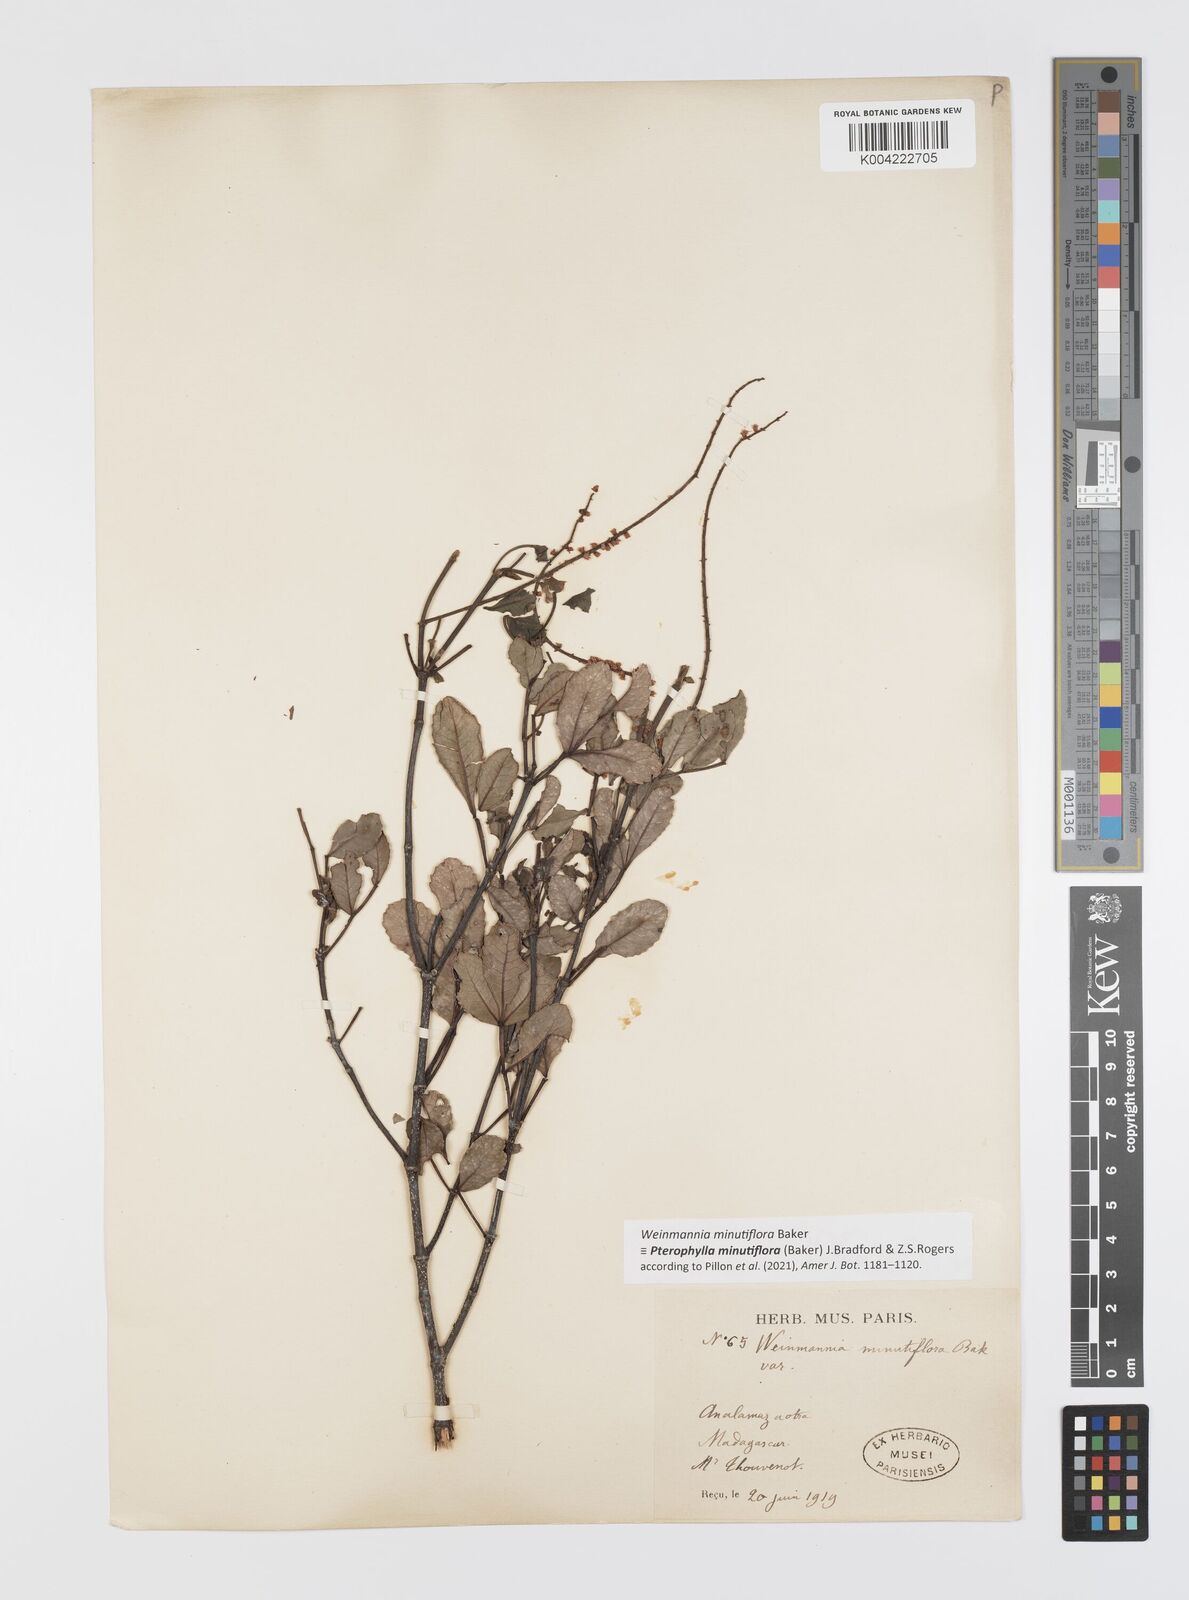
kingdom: Plantae
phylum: Tracheophyta
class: Magnoliopsida
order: Oxalidales
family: Cunoniaceae
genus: Pterophylla
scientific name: Pterophylla
